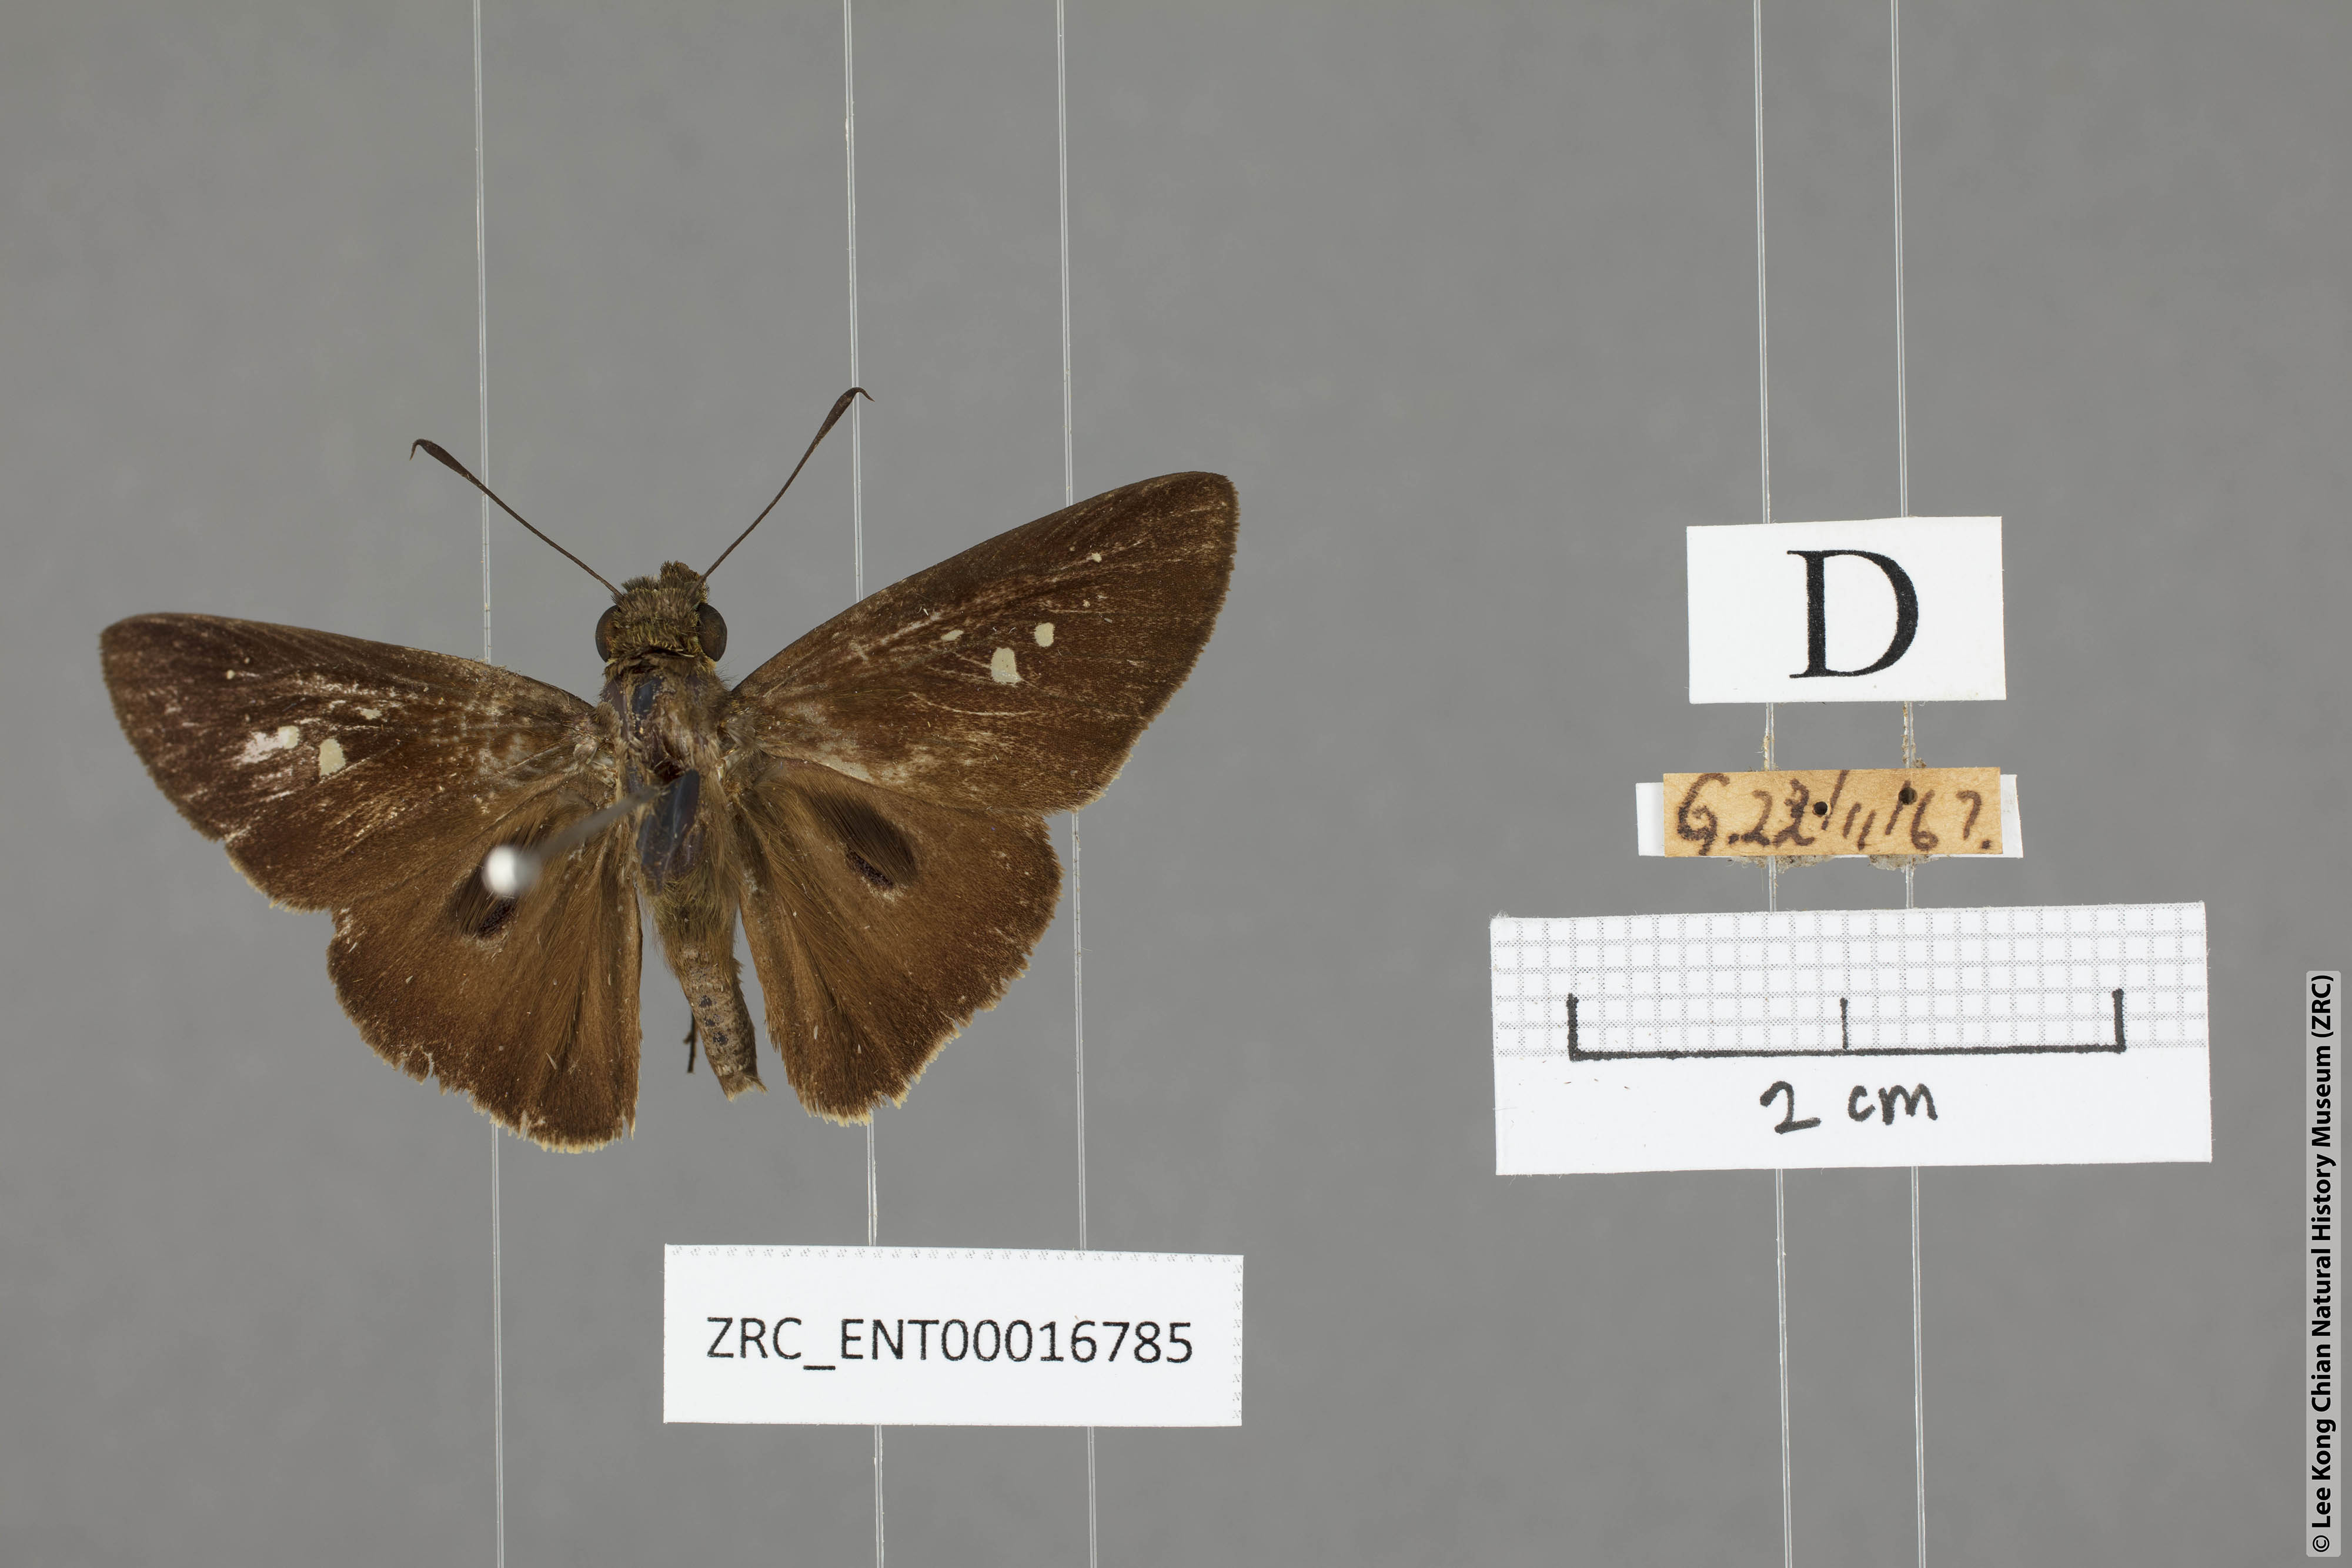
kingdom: Animalia
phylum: Arthropoda
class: Insecta
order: Lepidoptera
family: Hesperiidae
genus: Baoris
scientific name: Baoris oceia
